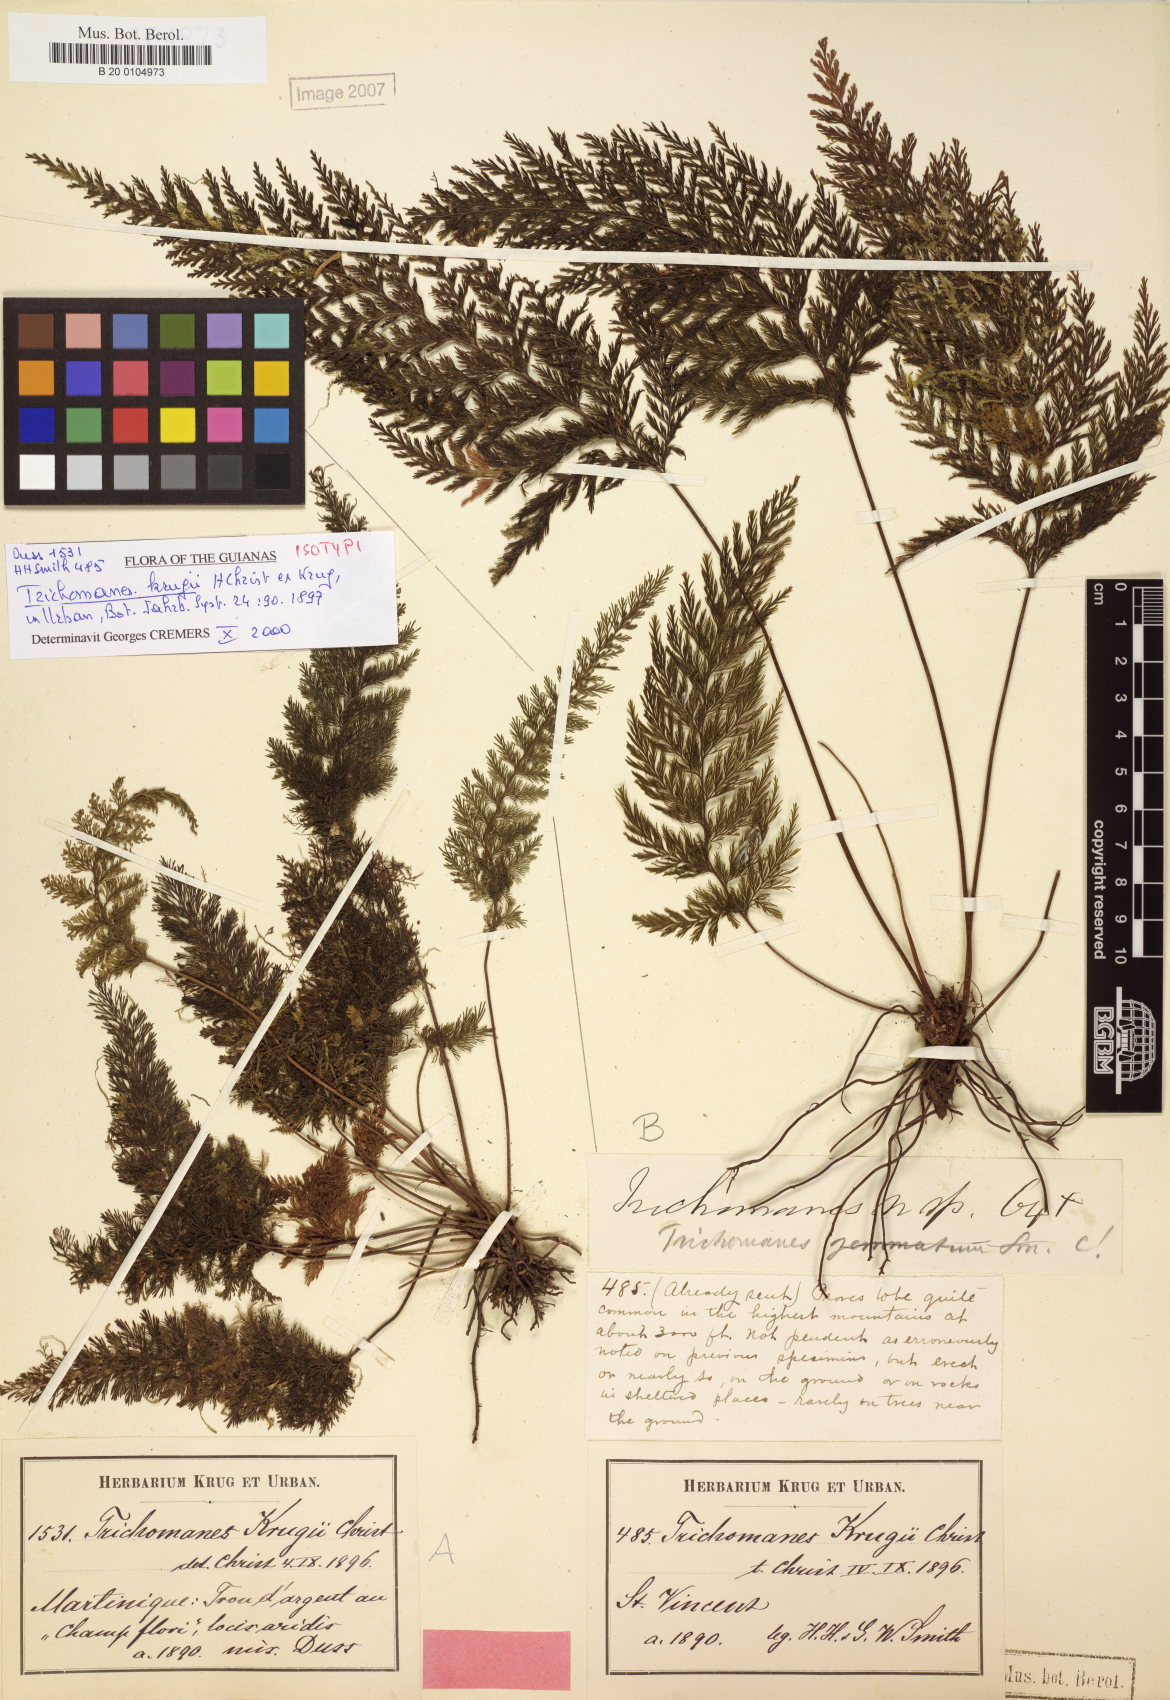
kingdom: Plantae
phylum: Tracheophyta
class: Polypodiopsida
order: Hymenophyllales
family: Hymenophyllaceae
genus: Abrodictyum
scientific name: Abrodictyum rigidum
